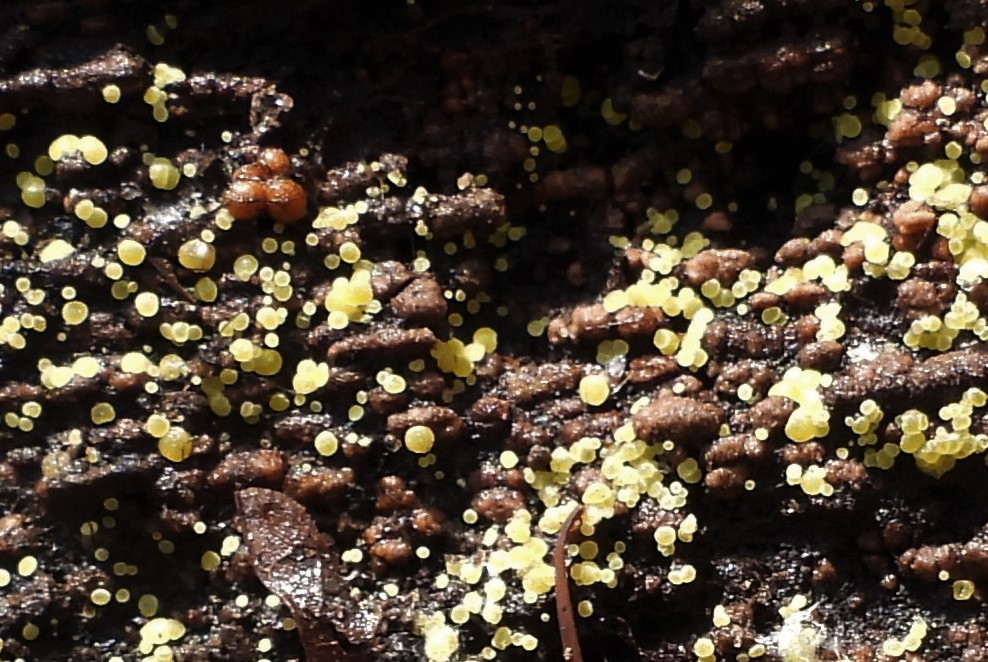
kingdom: Fungi
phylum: Ascomycota
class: Leotiomycetes
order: Helotiales
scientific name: Helotiales
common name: stilkskiveordenen
